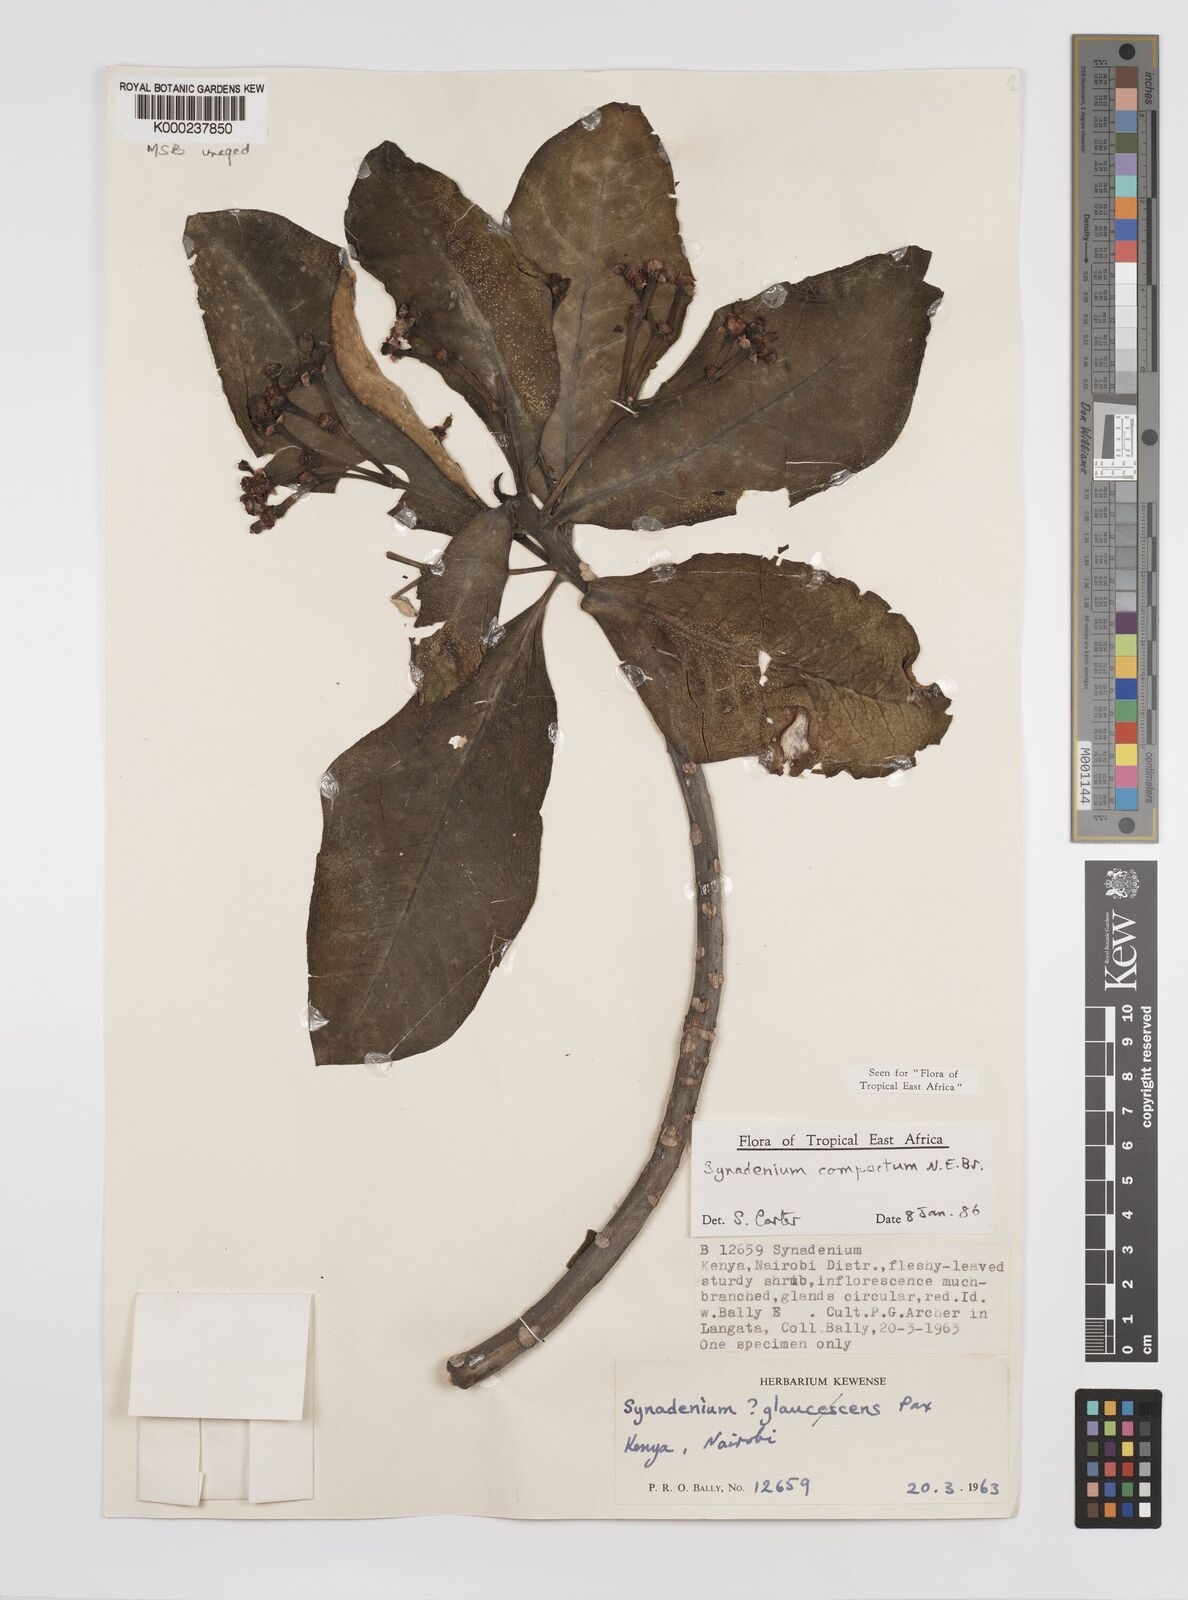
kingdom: Plantae
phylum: Tracheophyta
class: Magnoliopsida
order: Malpighiales
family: Euphorbiaceae
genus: Euphorbia
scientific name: Euphorbia bicompacta
